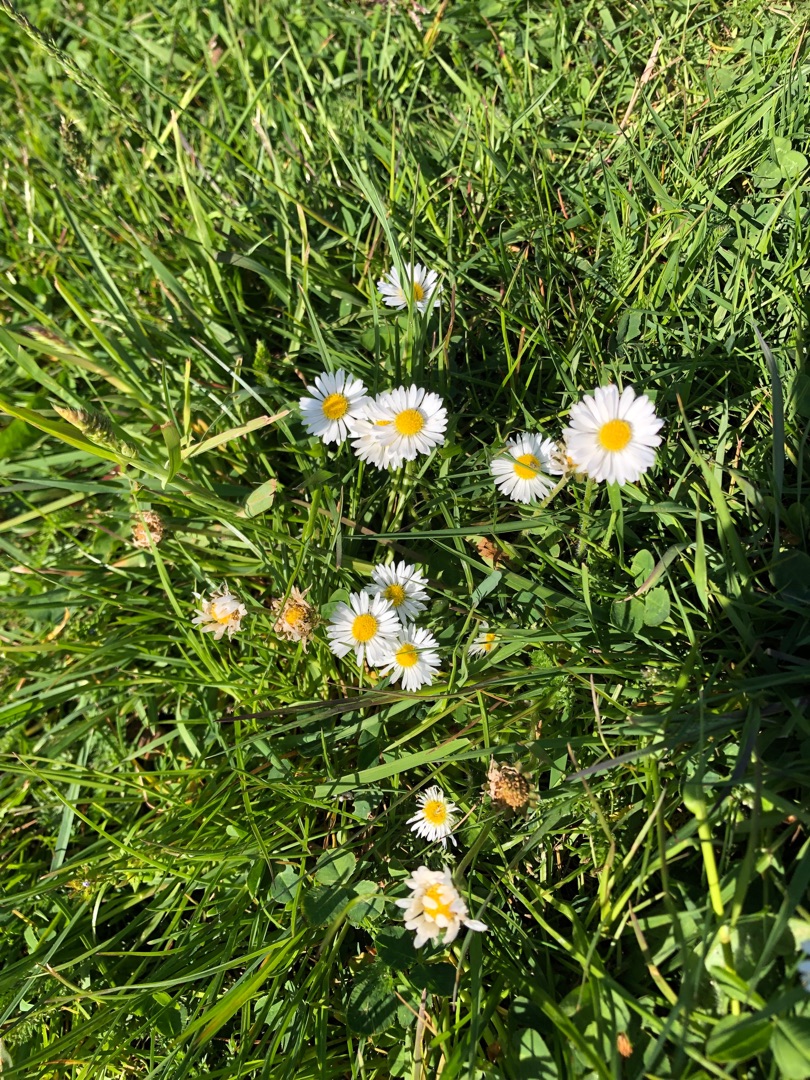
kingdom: Plantae
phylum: Tracheophyta
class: Magnoliopsida
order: Asterales
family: Asteraceae
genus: Bellis
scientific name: Bellis perennis
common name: Tusindfryd
